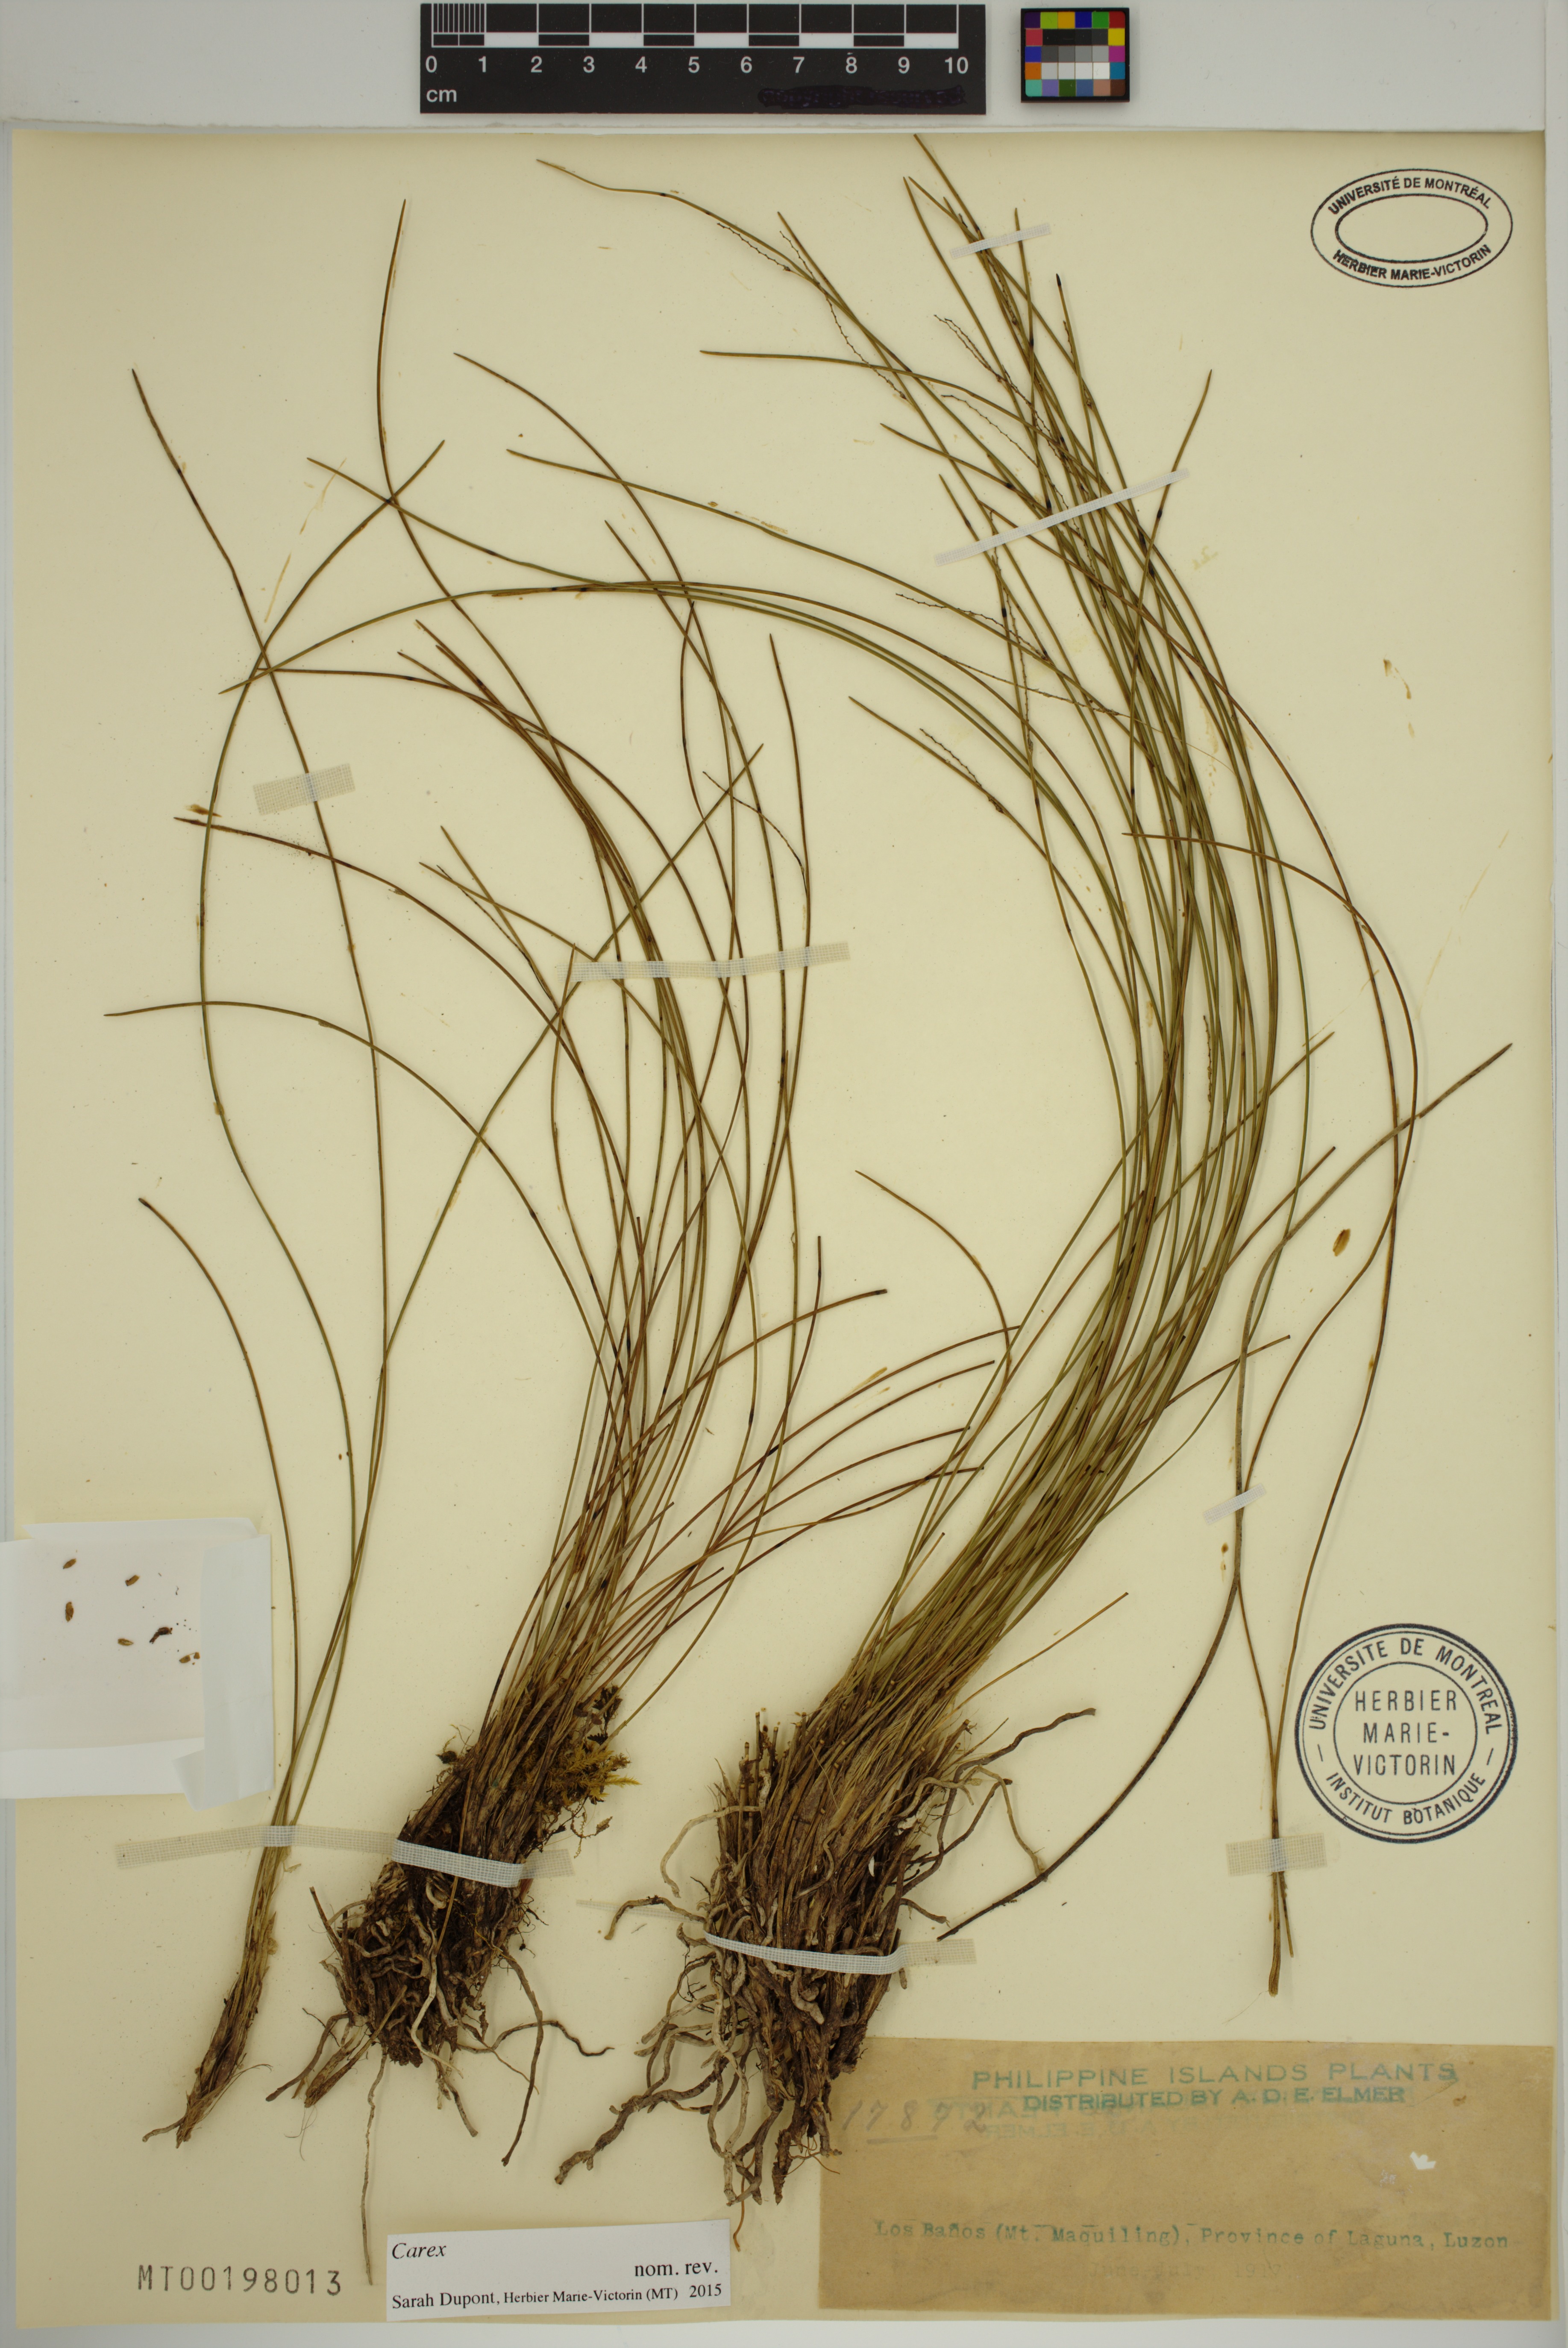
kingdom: Plantae
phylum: Tracheophyta
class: Liliopsida
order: Poales
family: Cyperaceae
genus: Carex
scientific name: Carex
